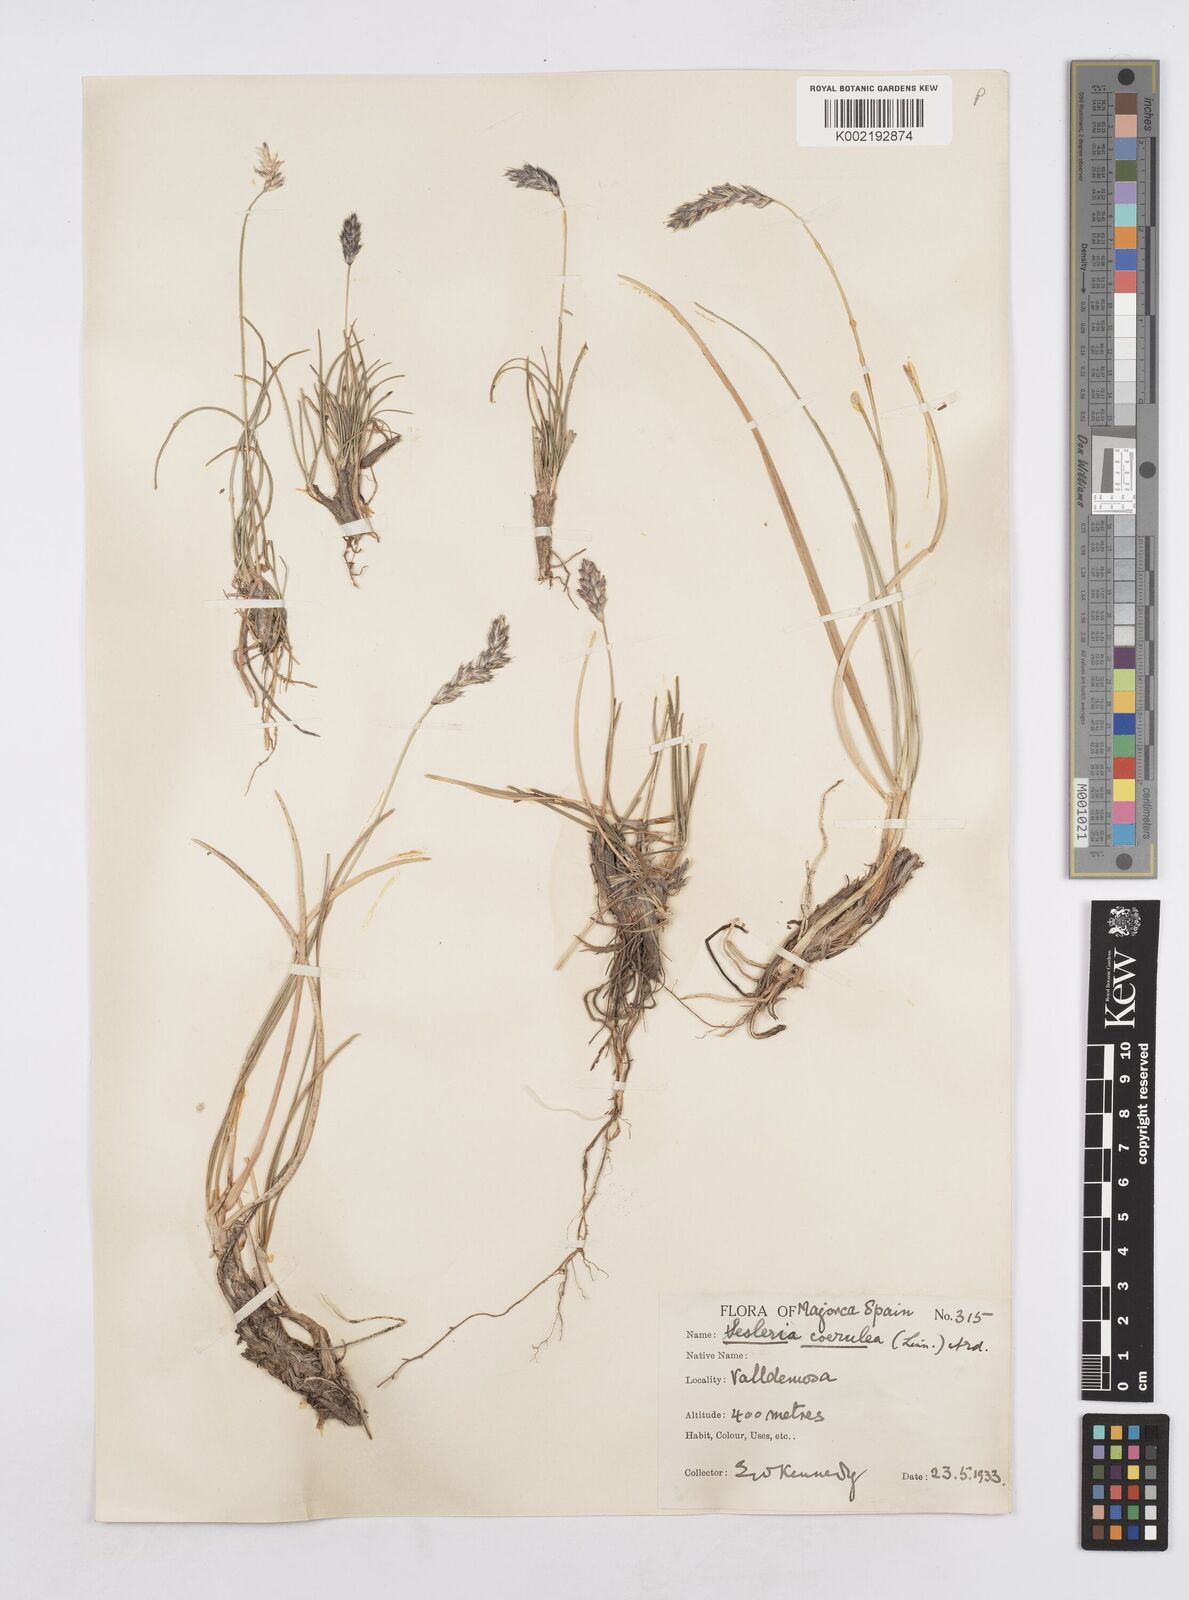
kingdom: Plantae
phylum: Tracheophyta
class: Liliopsida
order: Poales
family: Poaceae
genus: Sesleria
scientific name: Sesleria albicans
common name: Blue moor-grass
